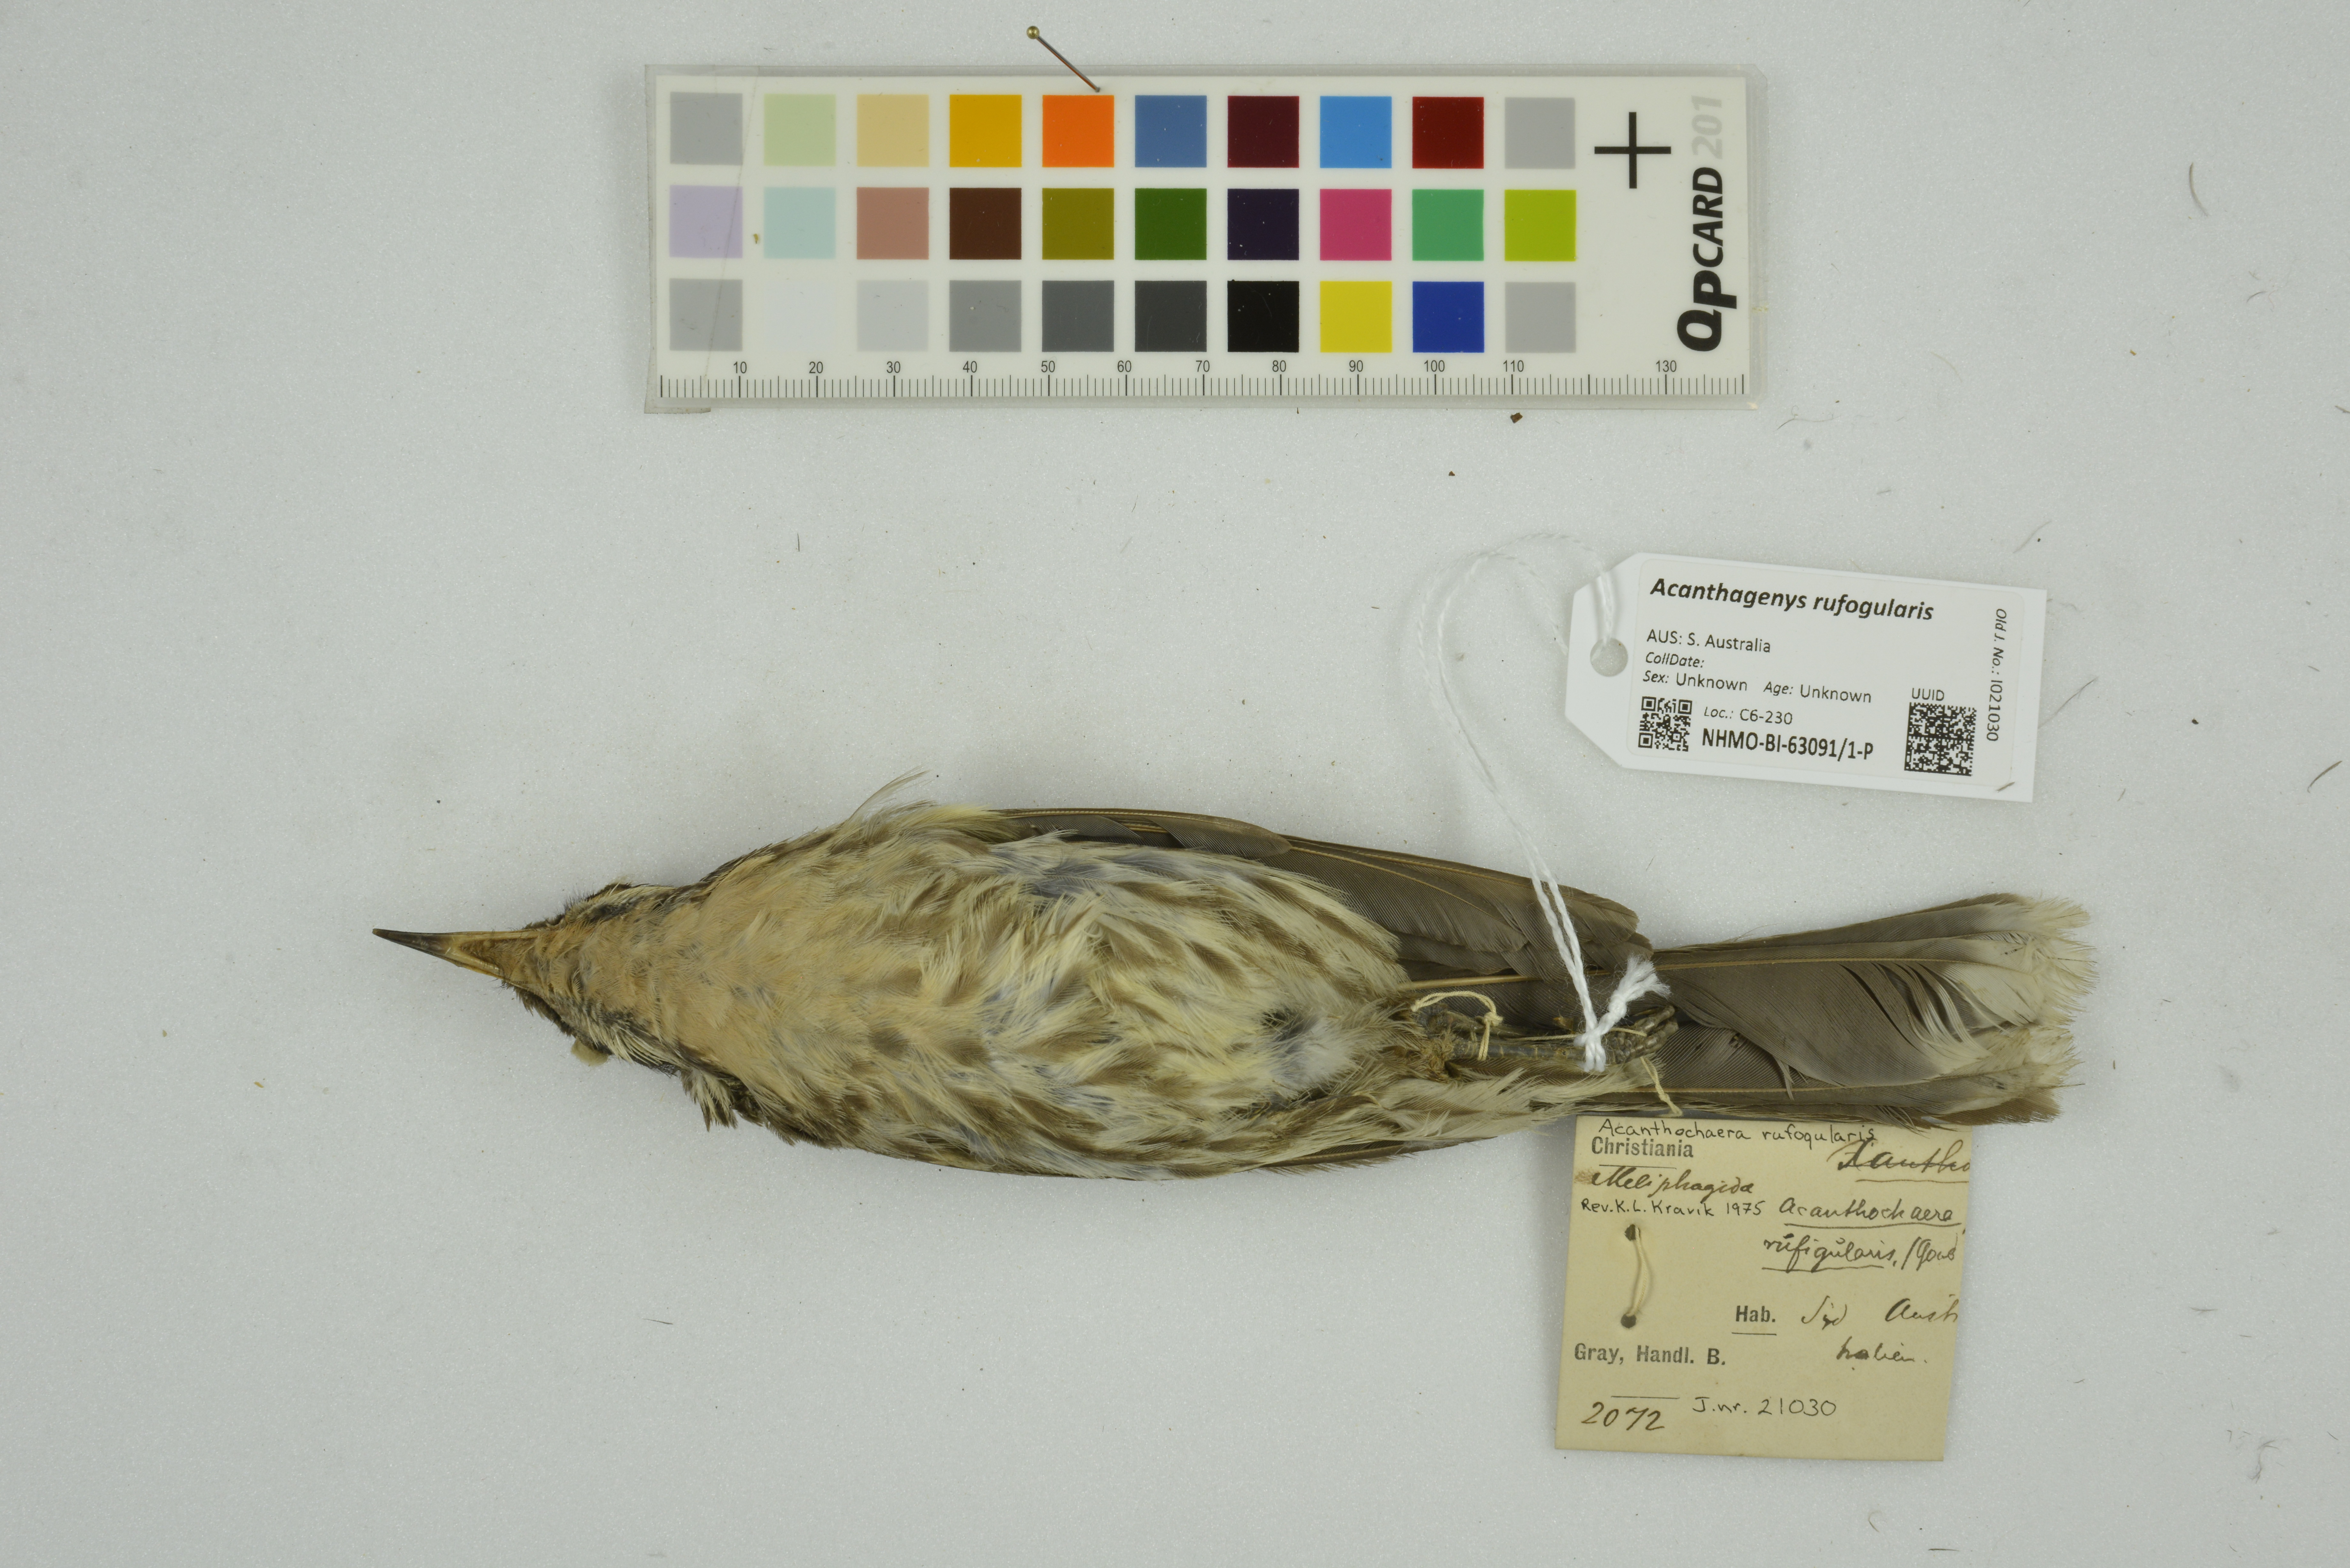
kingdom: Animalia
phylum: Chordata
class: Aves
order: Passeriformes
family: Meliphagidae
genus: Acanthagenys
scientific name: Acanthagenys rufogularis
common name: Spiny-cheeked honeyeater
